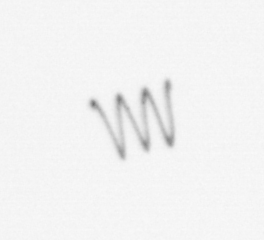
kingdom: Chromista
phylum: Ochrophyta
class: Bacillariophyceae
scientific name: Bacillariophyceae
